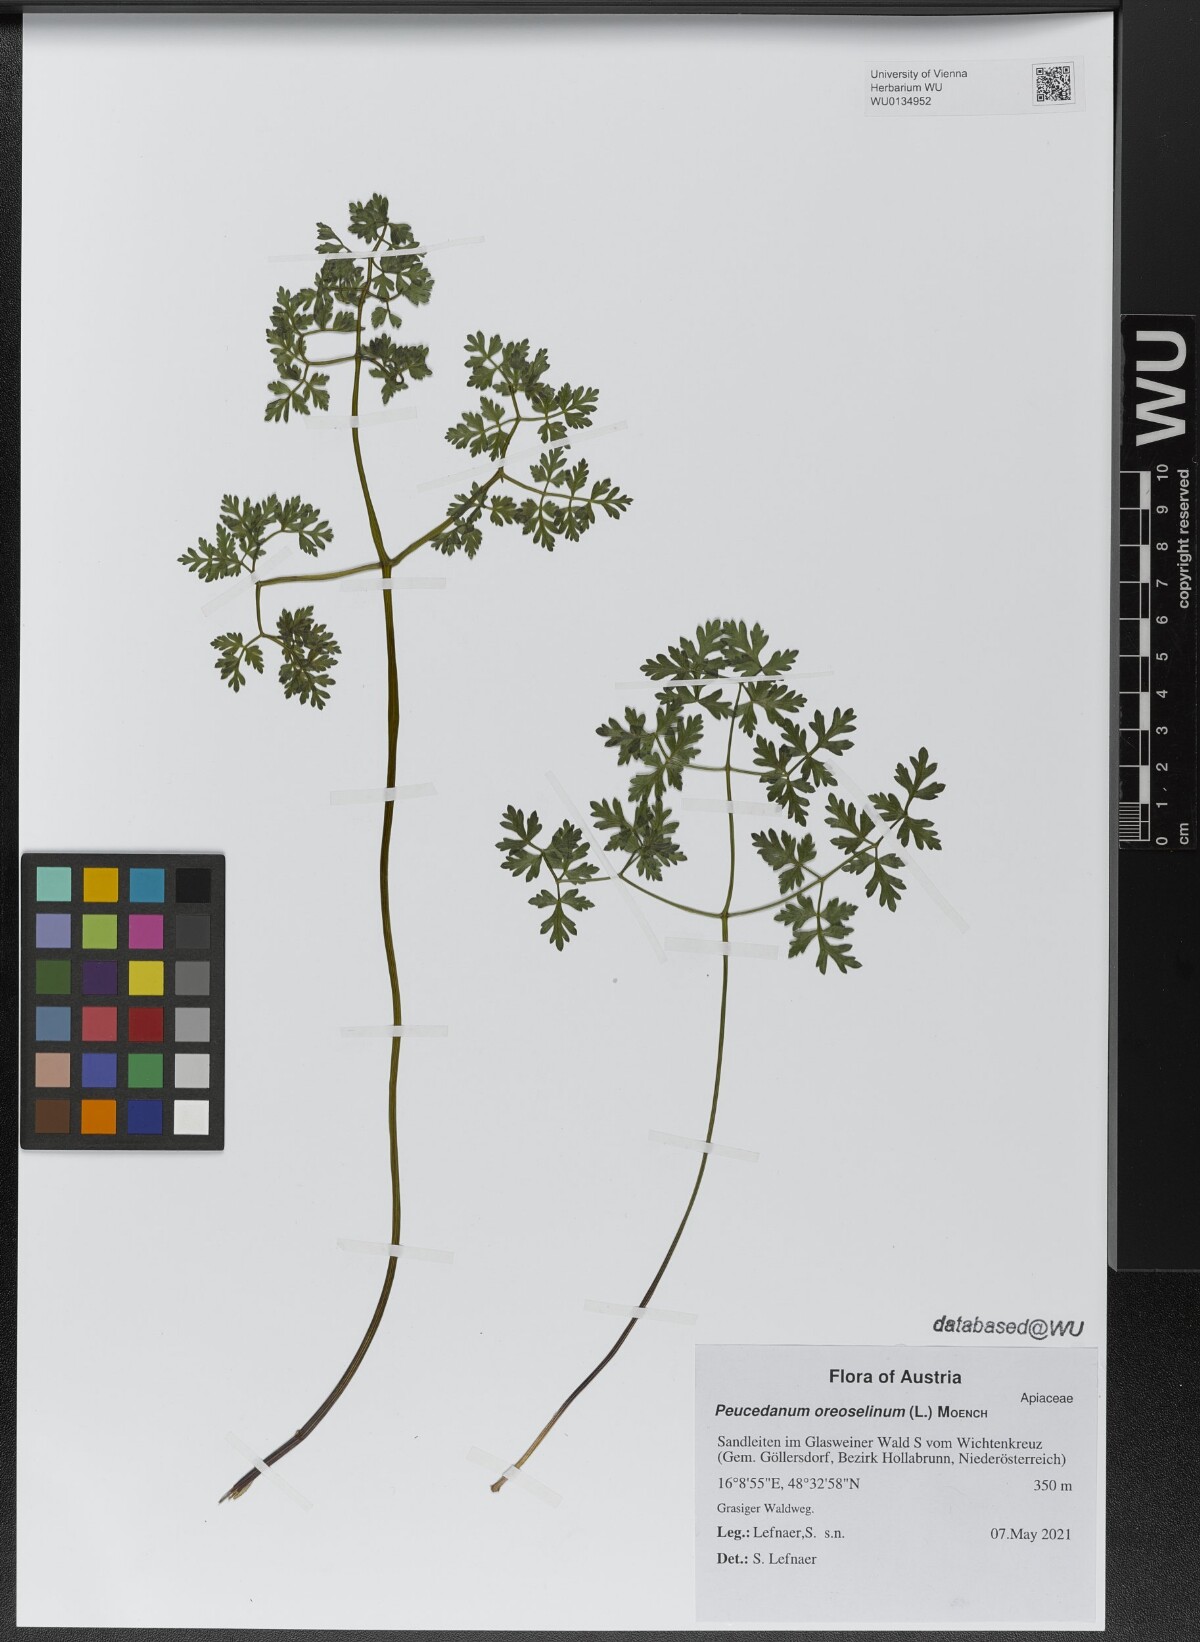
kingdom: Plantae
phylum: Tracheophyta
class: Magnoliopsida
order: Apiales
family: Apiaceae
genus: Oreoselinum
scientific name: Oreoselinum nigrum
